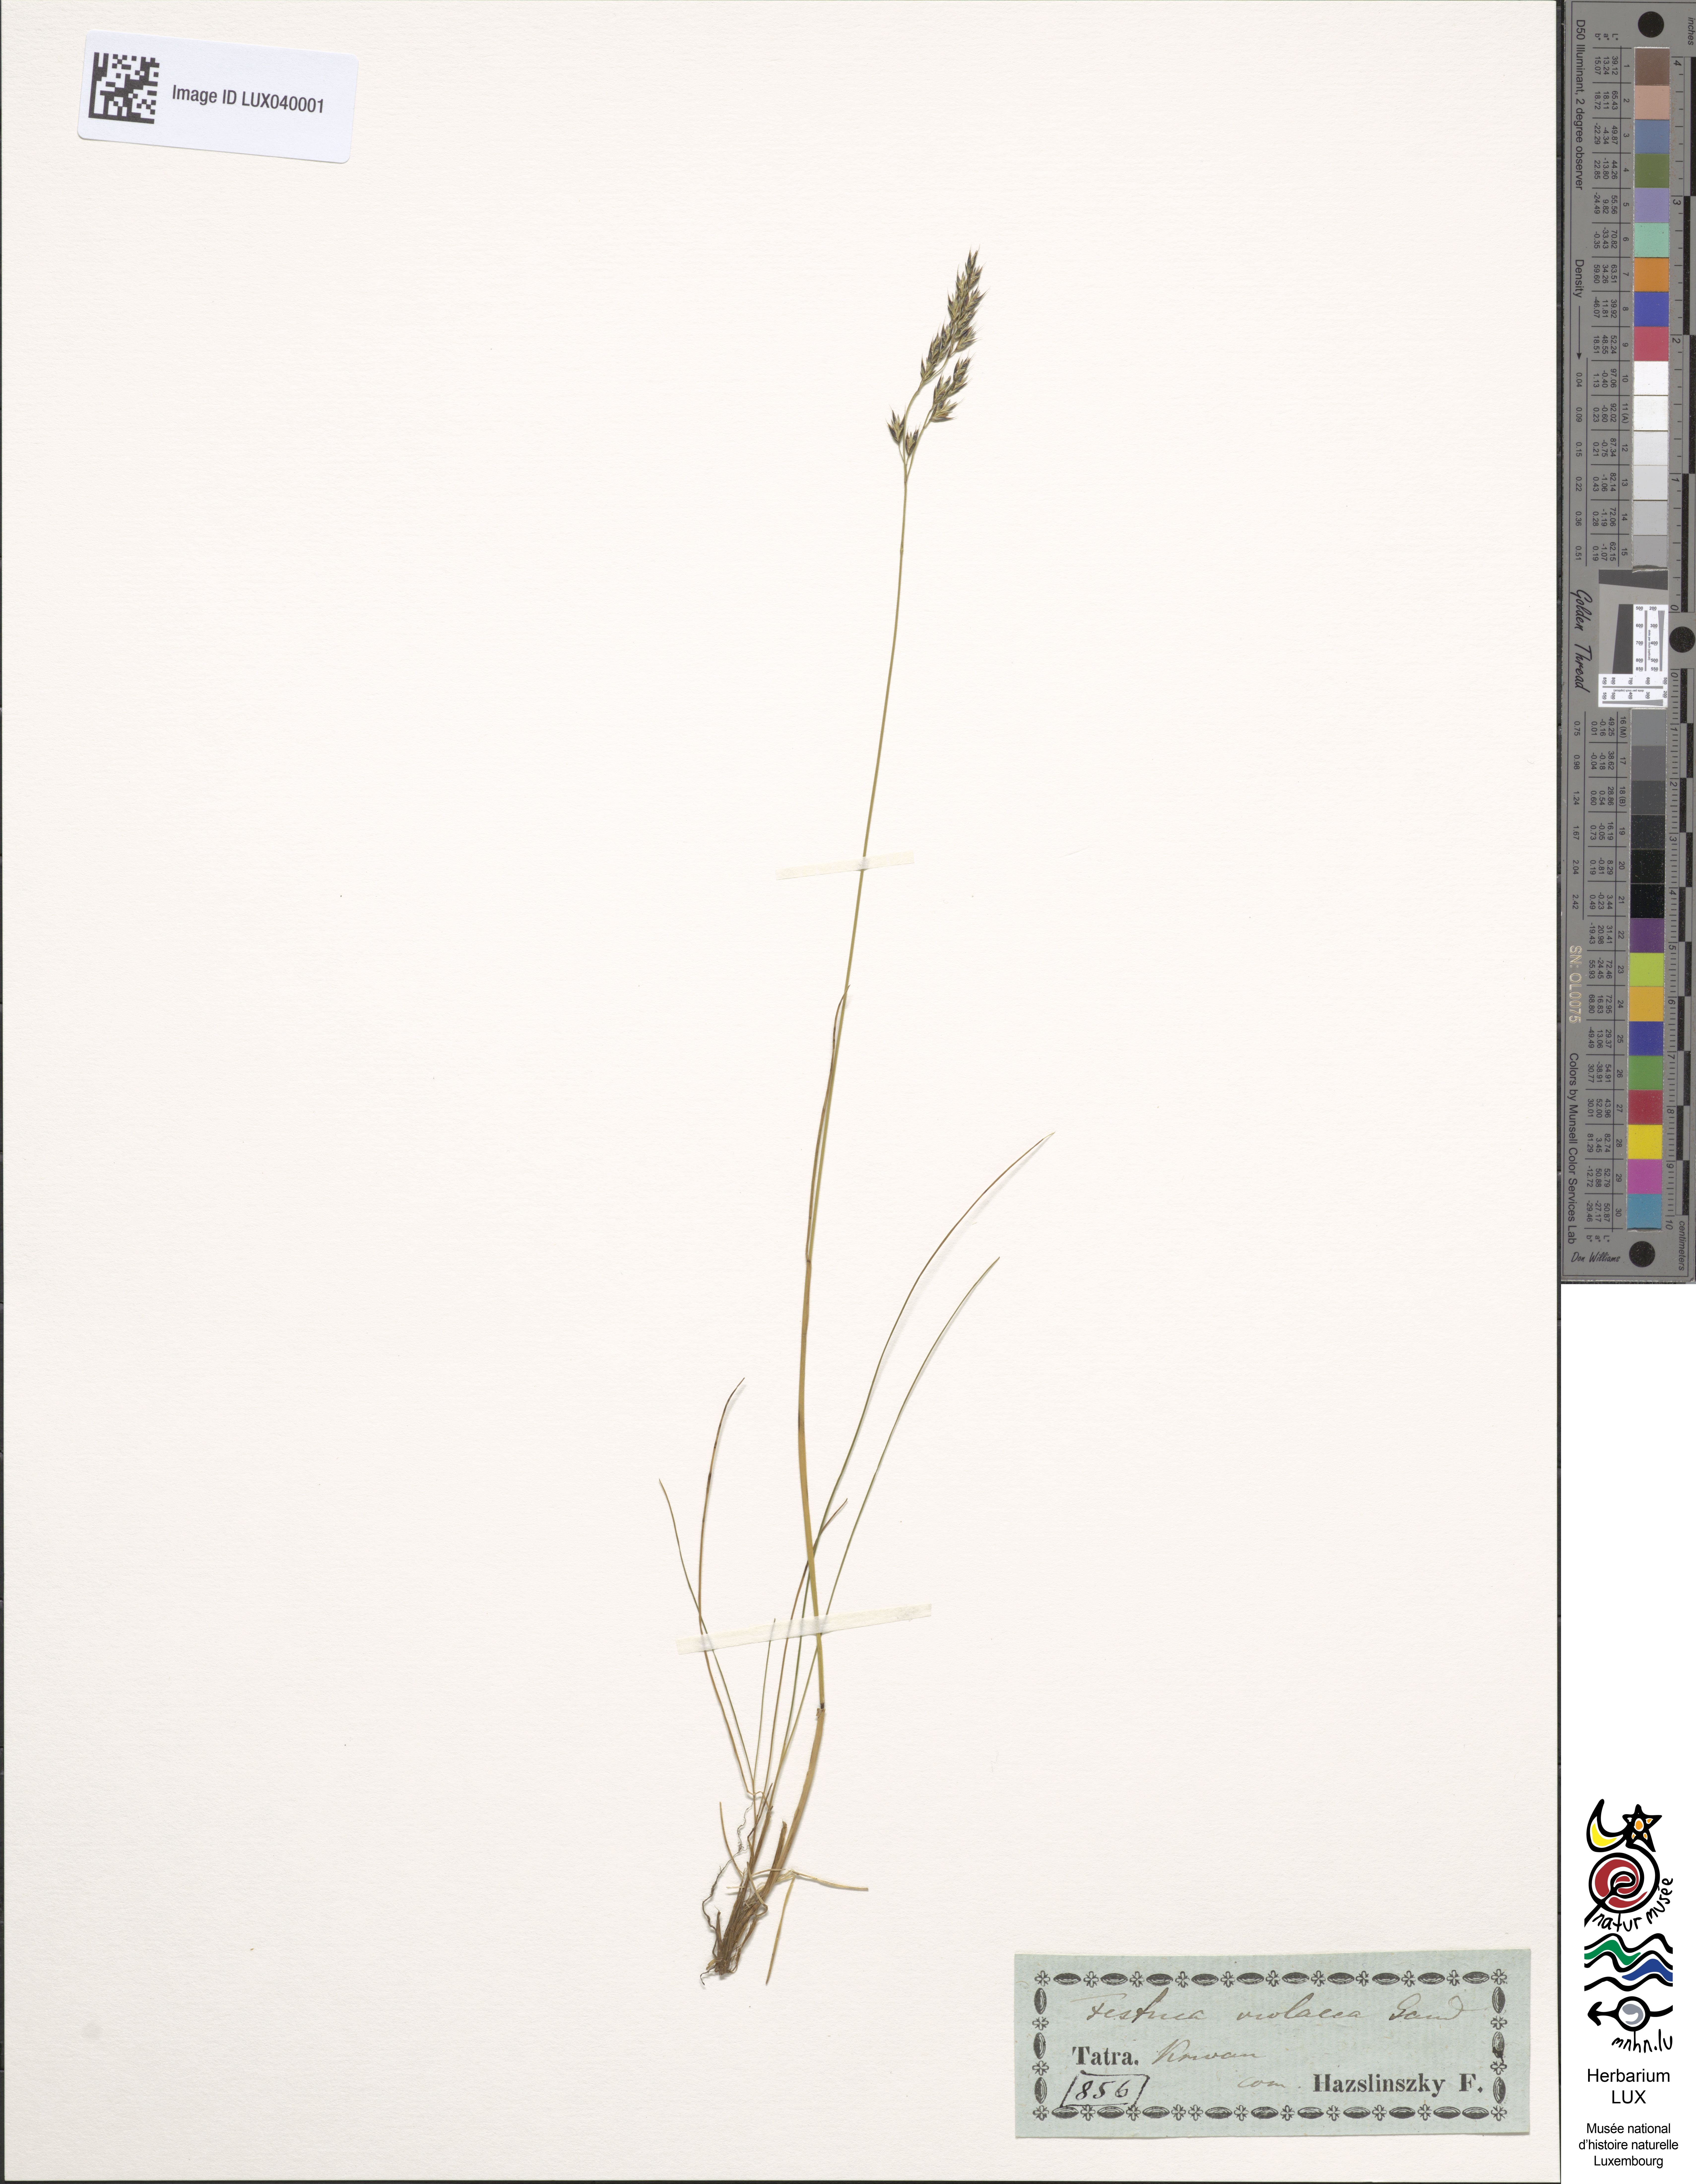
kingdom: Plantae
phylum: Tracheophyta
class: Liliopsida
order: Poales
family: Poaceae
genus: Festuca
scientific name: Festuca violacea
